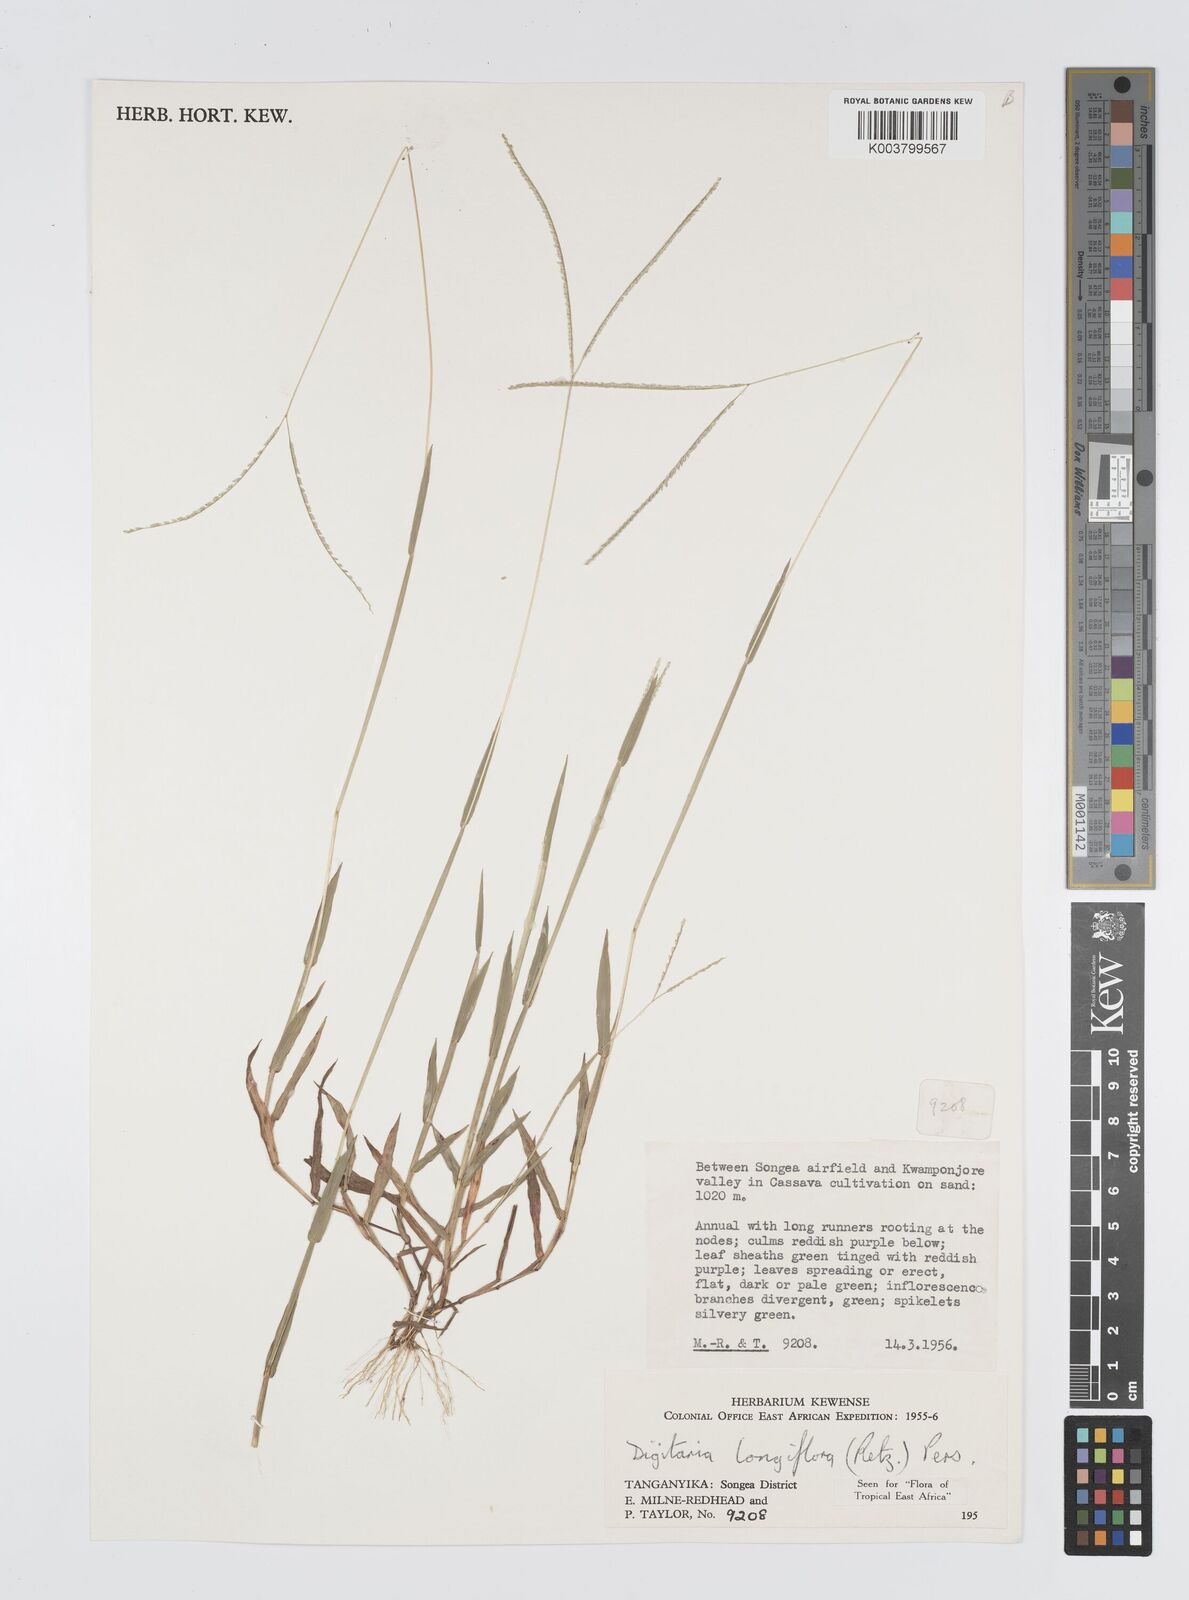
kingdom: Plantae
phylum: Tracheophyta
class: Liliopsida
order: Poales
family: Poaceae
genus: Digitaria
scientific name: Digitaria longiflora
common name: Wire crabgrass
